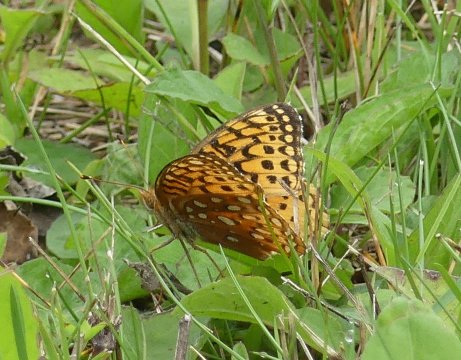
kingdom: Animalia
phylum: Arthropoda
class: Insecta
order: Lepidoptera
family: Nymphalidae
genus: Speyeria
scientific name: Speyeria aphrodite
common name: Aphrodite Fritillary
